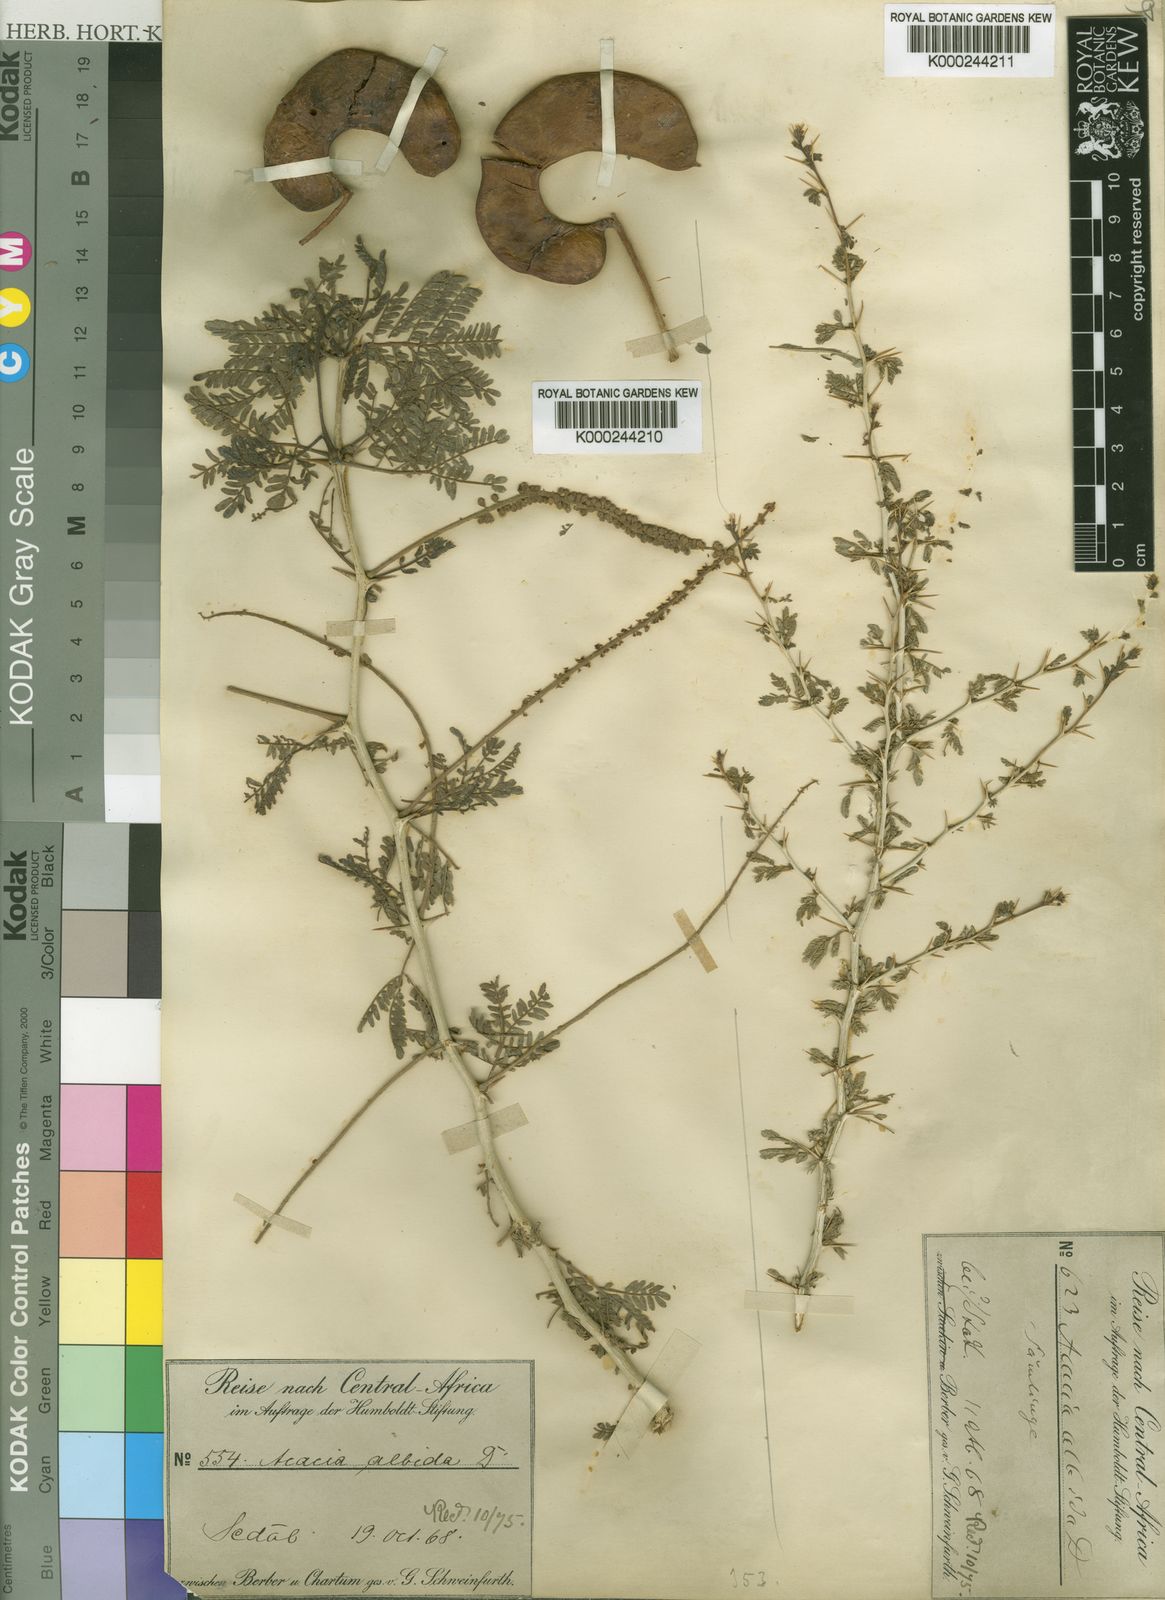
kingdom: Plantae
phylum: Tracheophyta
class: Magnoliopsida
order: Fabales
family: Fabaceae
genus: Faidherbia
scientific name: Faidherbia albida
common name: Anatree
